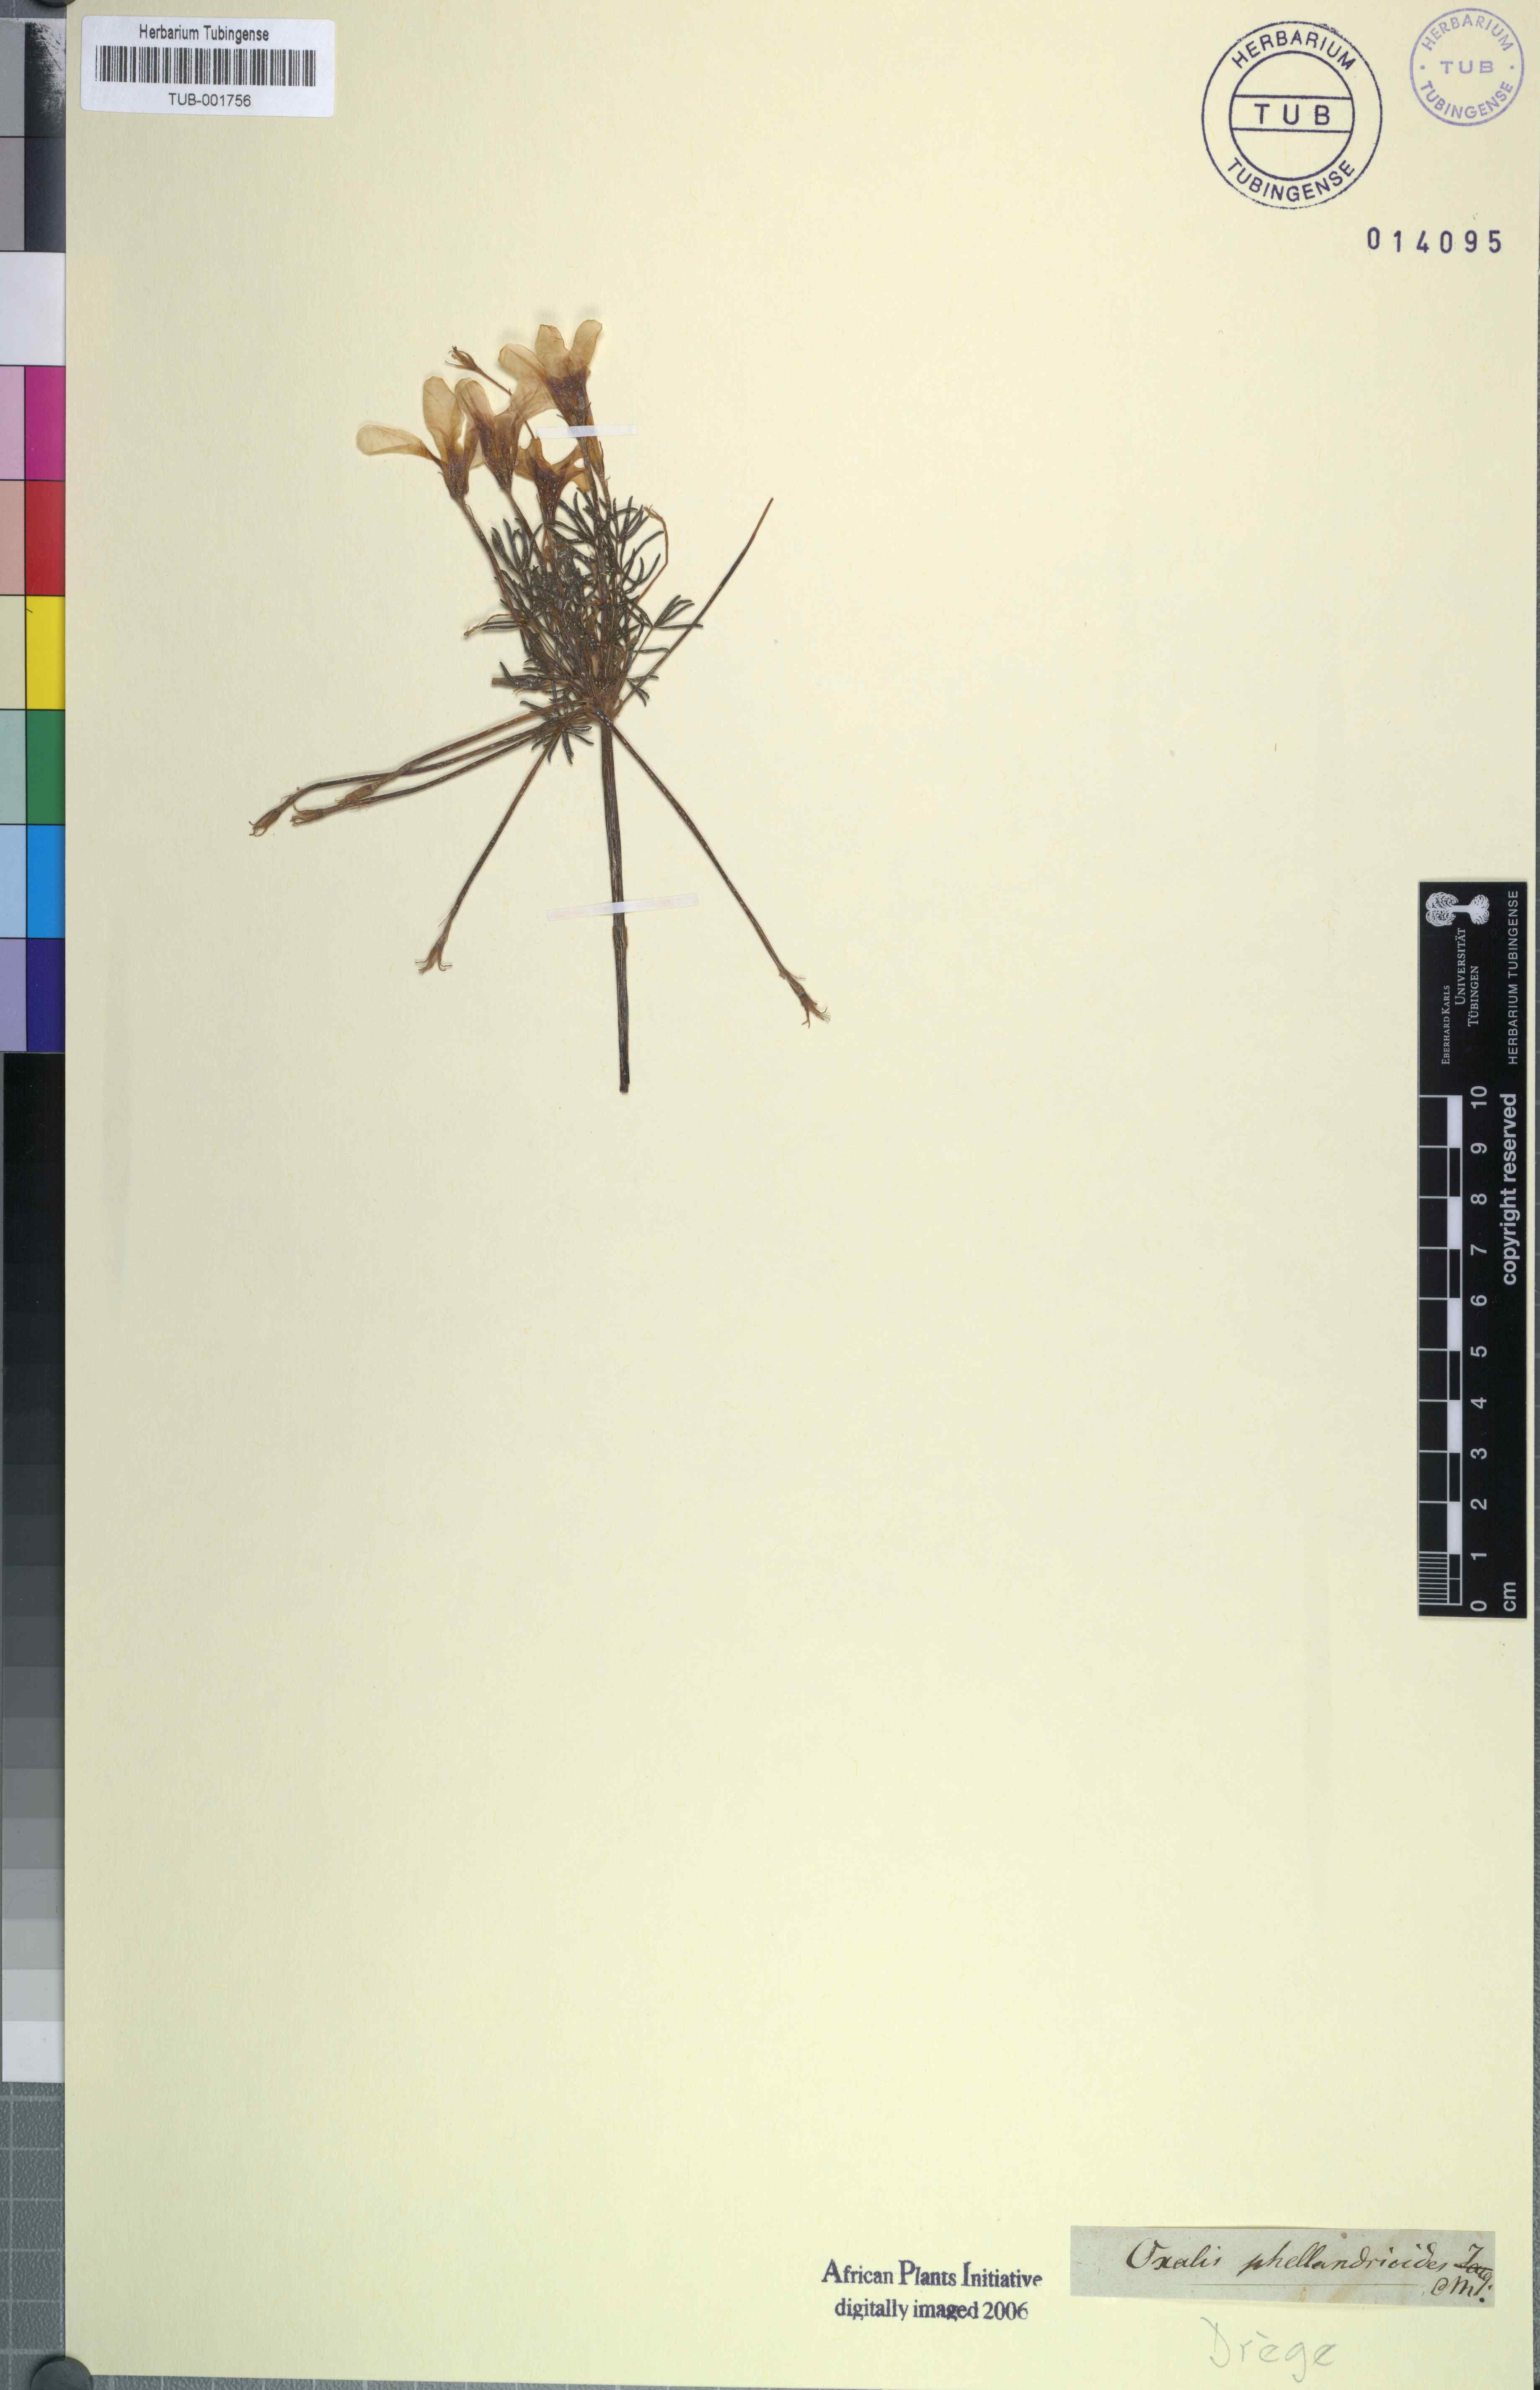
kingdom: Plantae
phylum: Tracheophyta
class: Magnoliopsida
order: Oxalidales
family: Oxalidaceae
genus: Oxalis
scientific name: Oxalis livida
